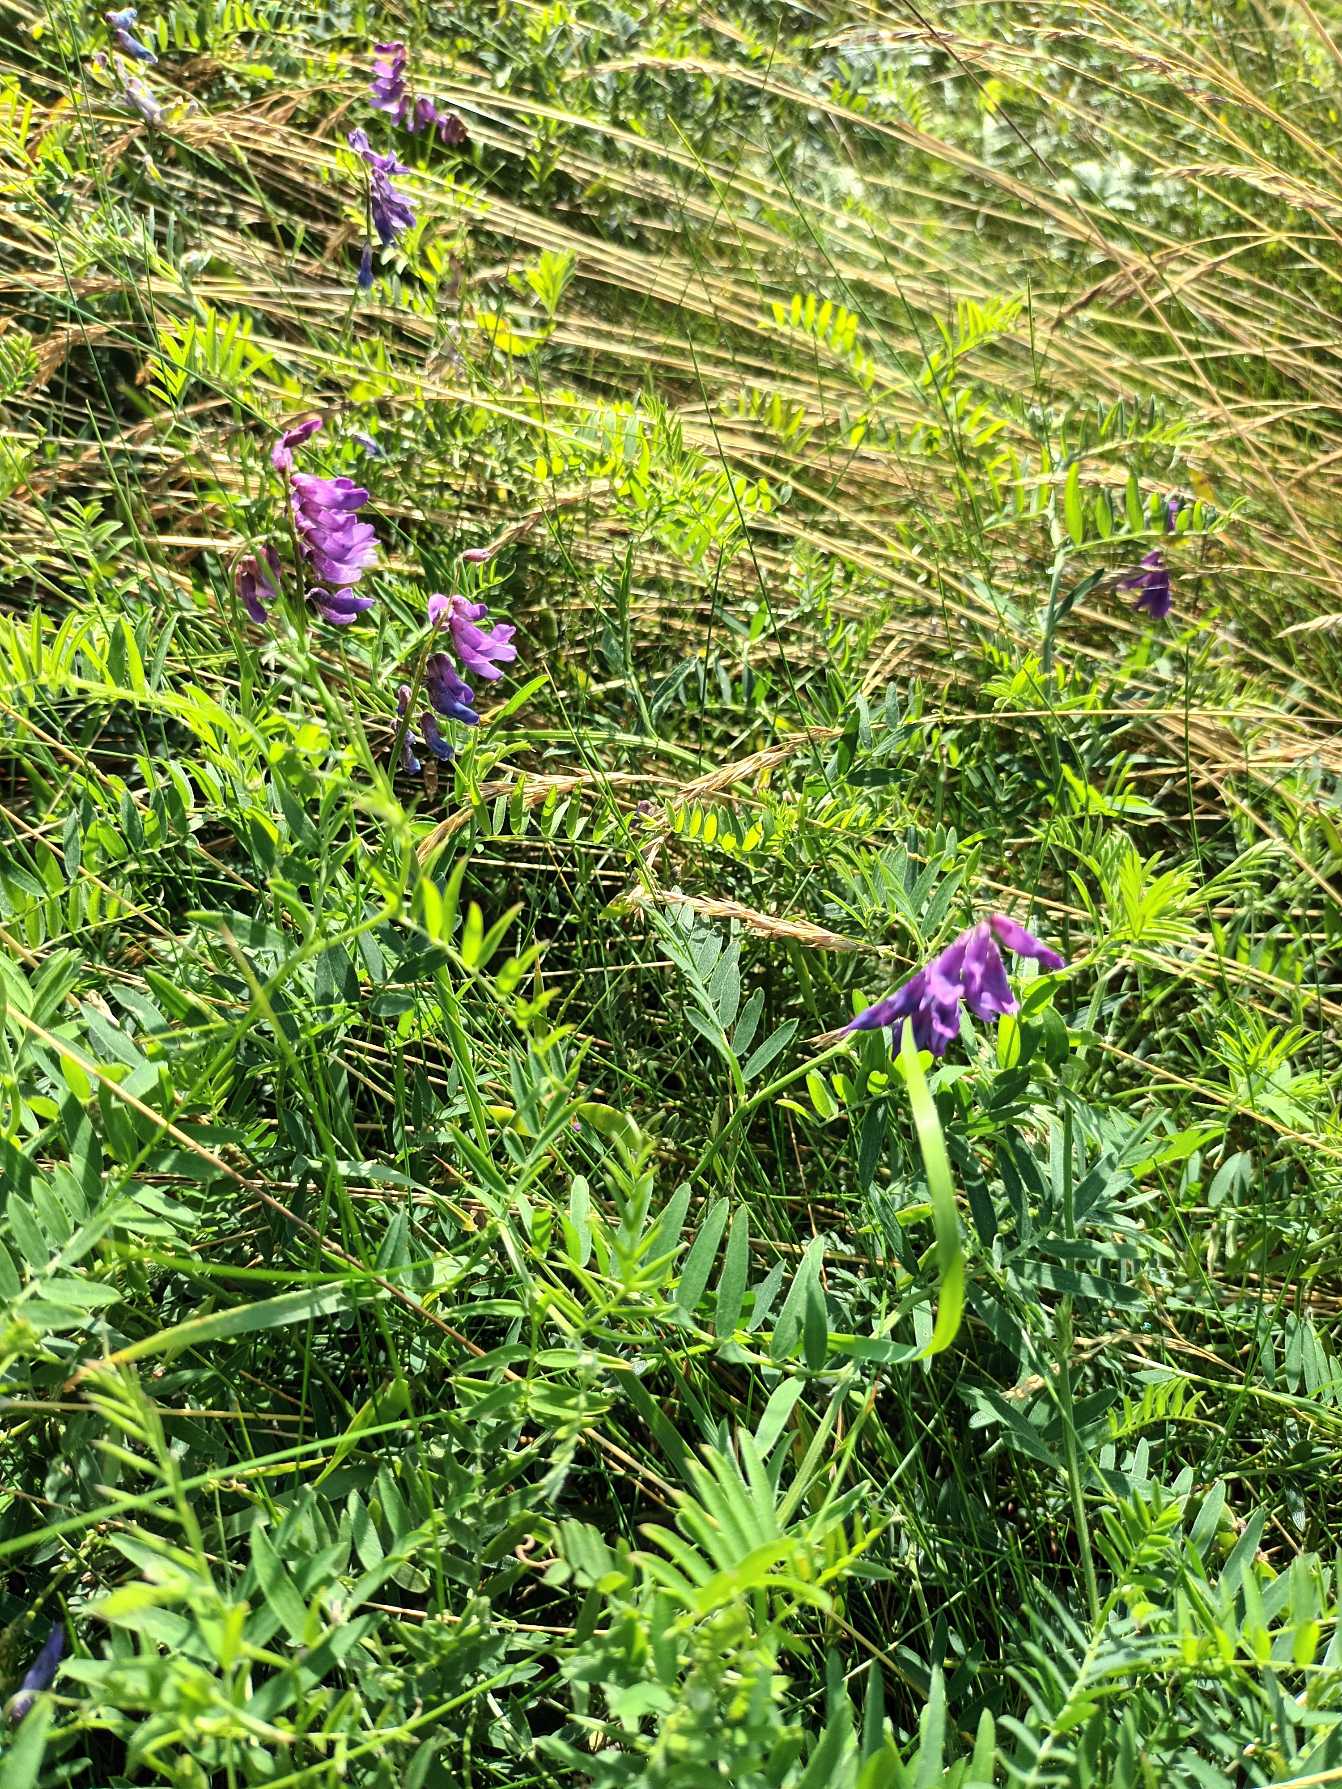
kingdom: Plantae
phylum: Tracheophyta
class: Magnoliopsida
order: Fabales
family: Fabaceae
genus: Vicia
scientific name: Vicia cracca
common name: Muse-vikke
